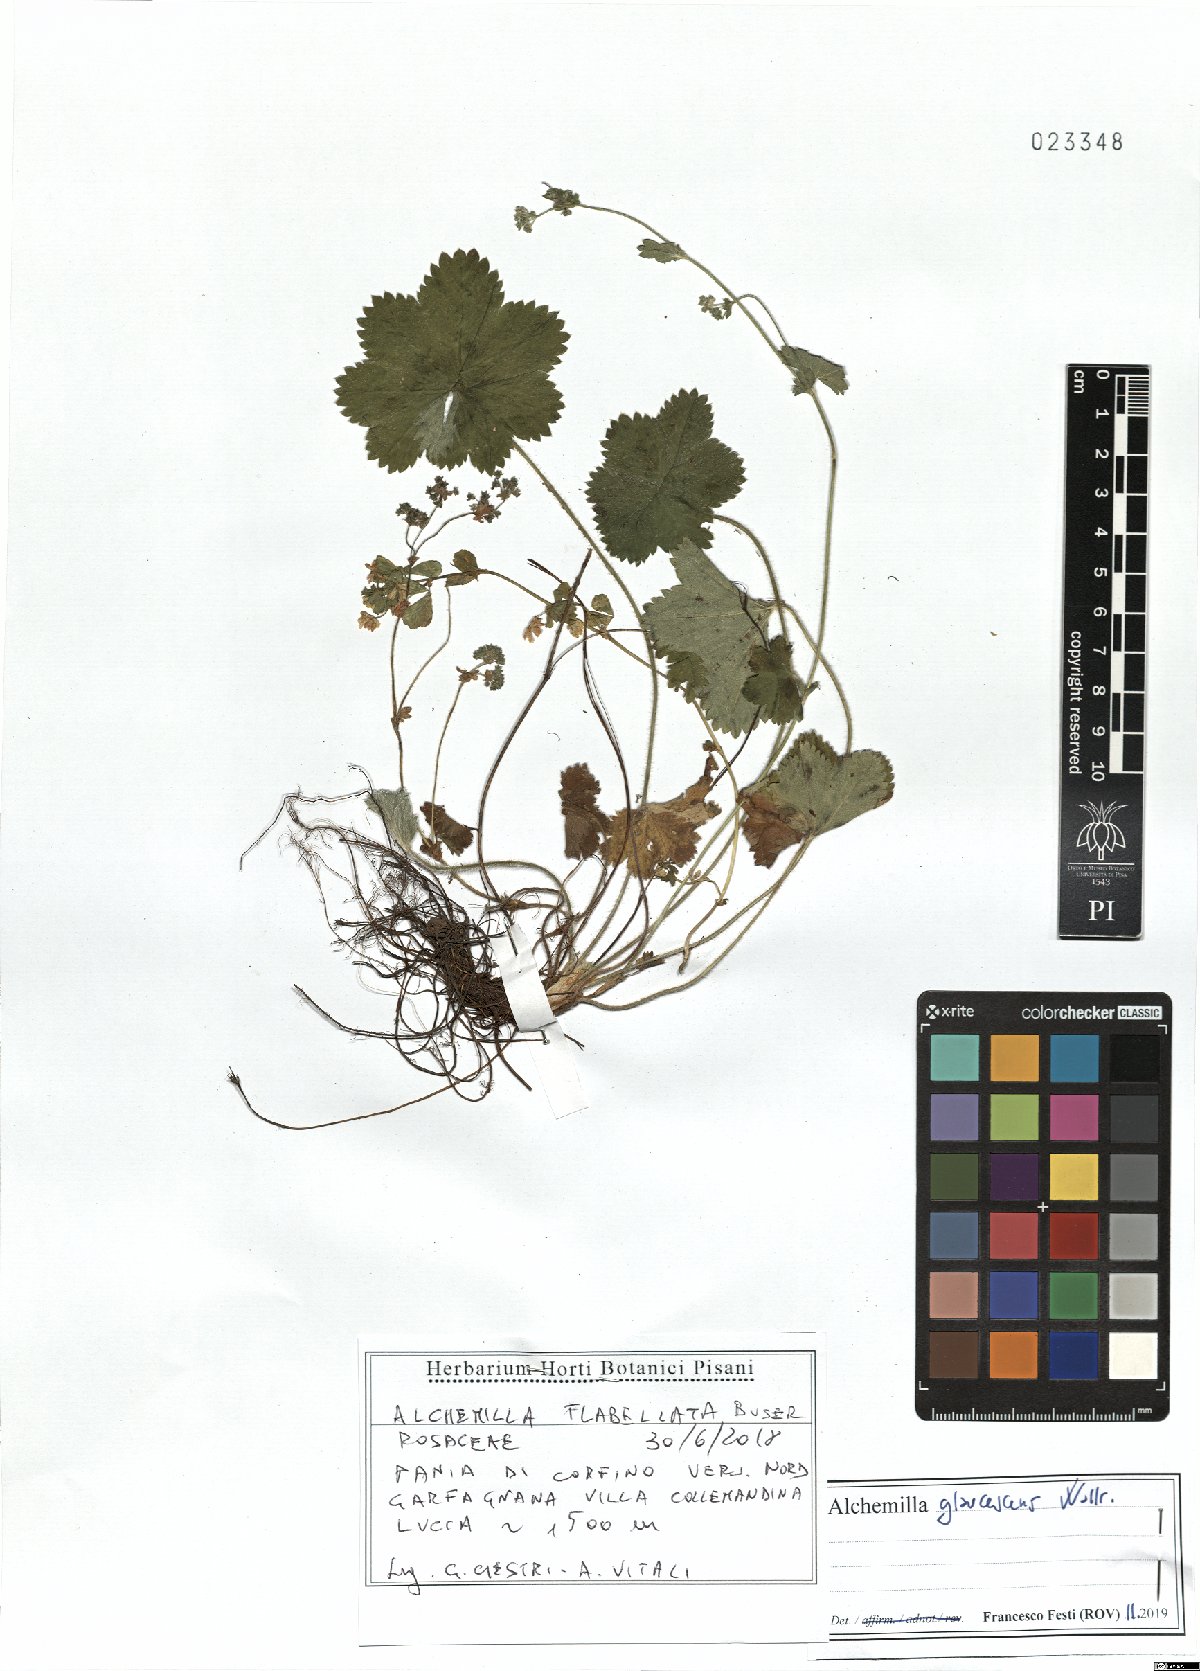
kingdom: Plantae
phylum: Tracheophyta
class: Magnoliopsida
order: Rosales
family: Rosaceae
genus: Alchemilla
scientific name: Alchemilla glaucescens
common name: Silky lady's mantle
